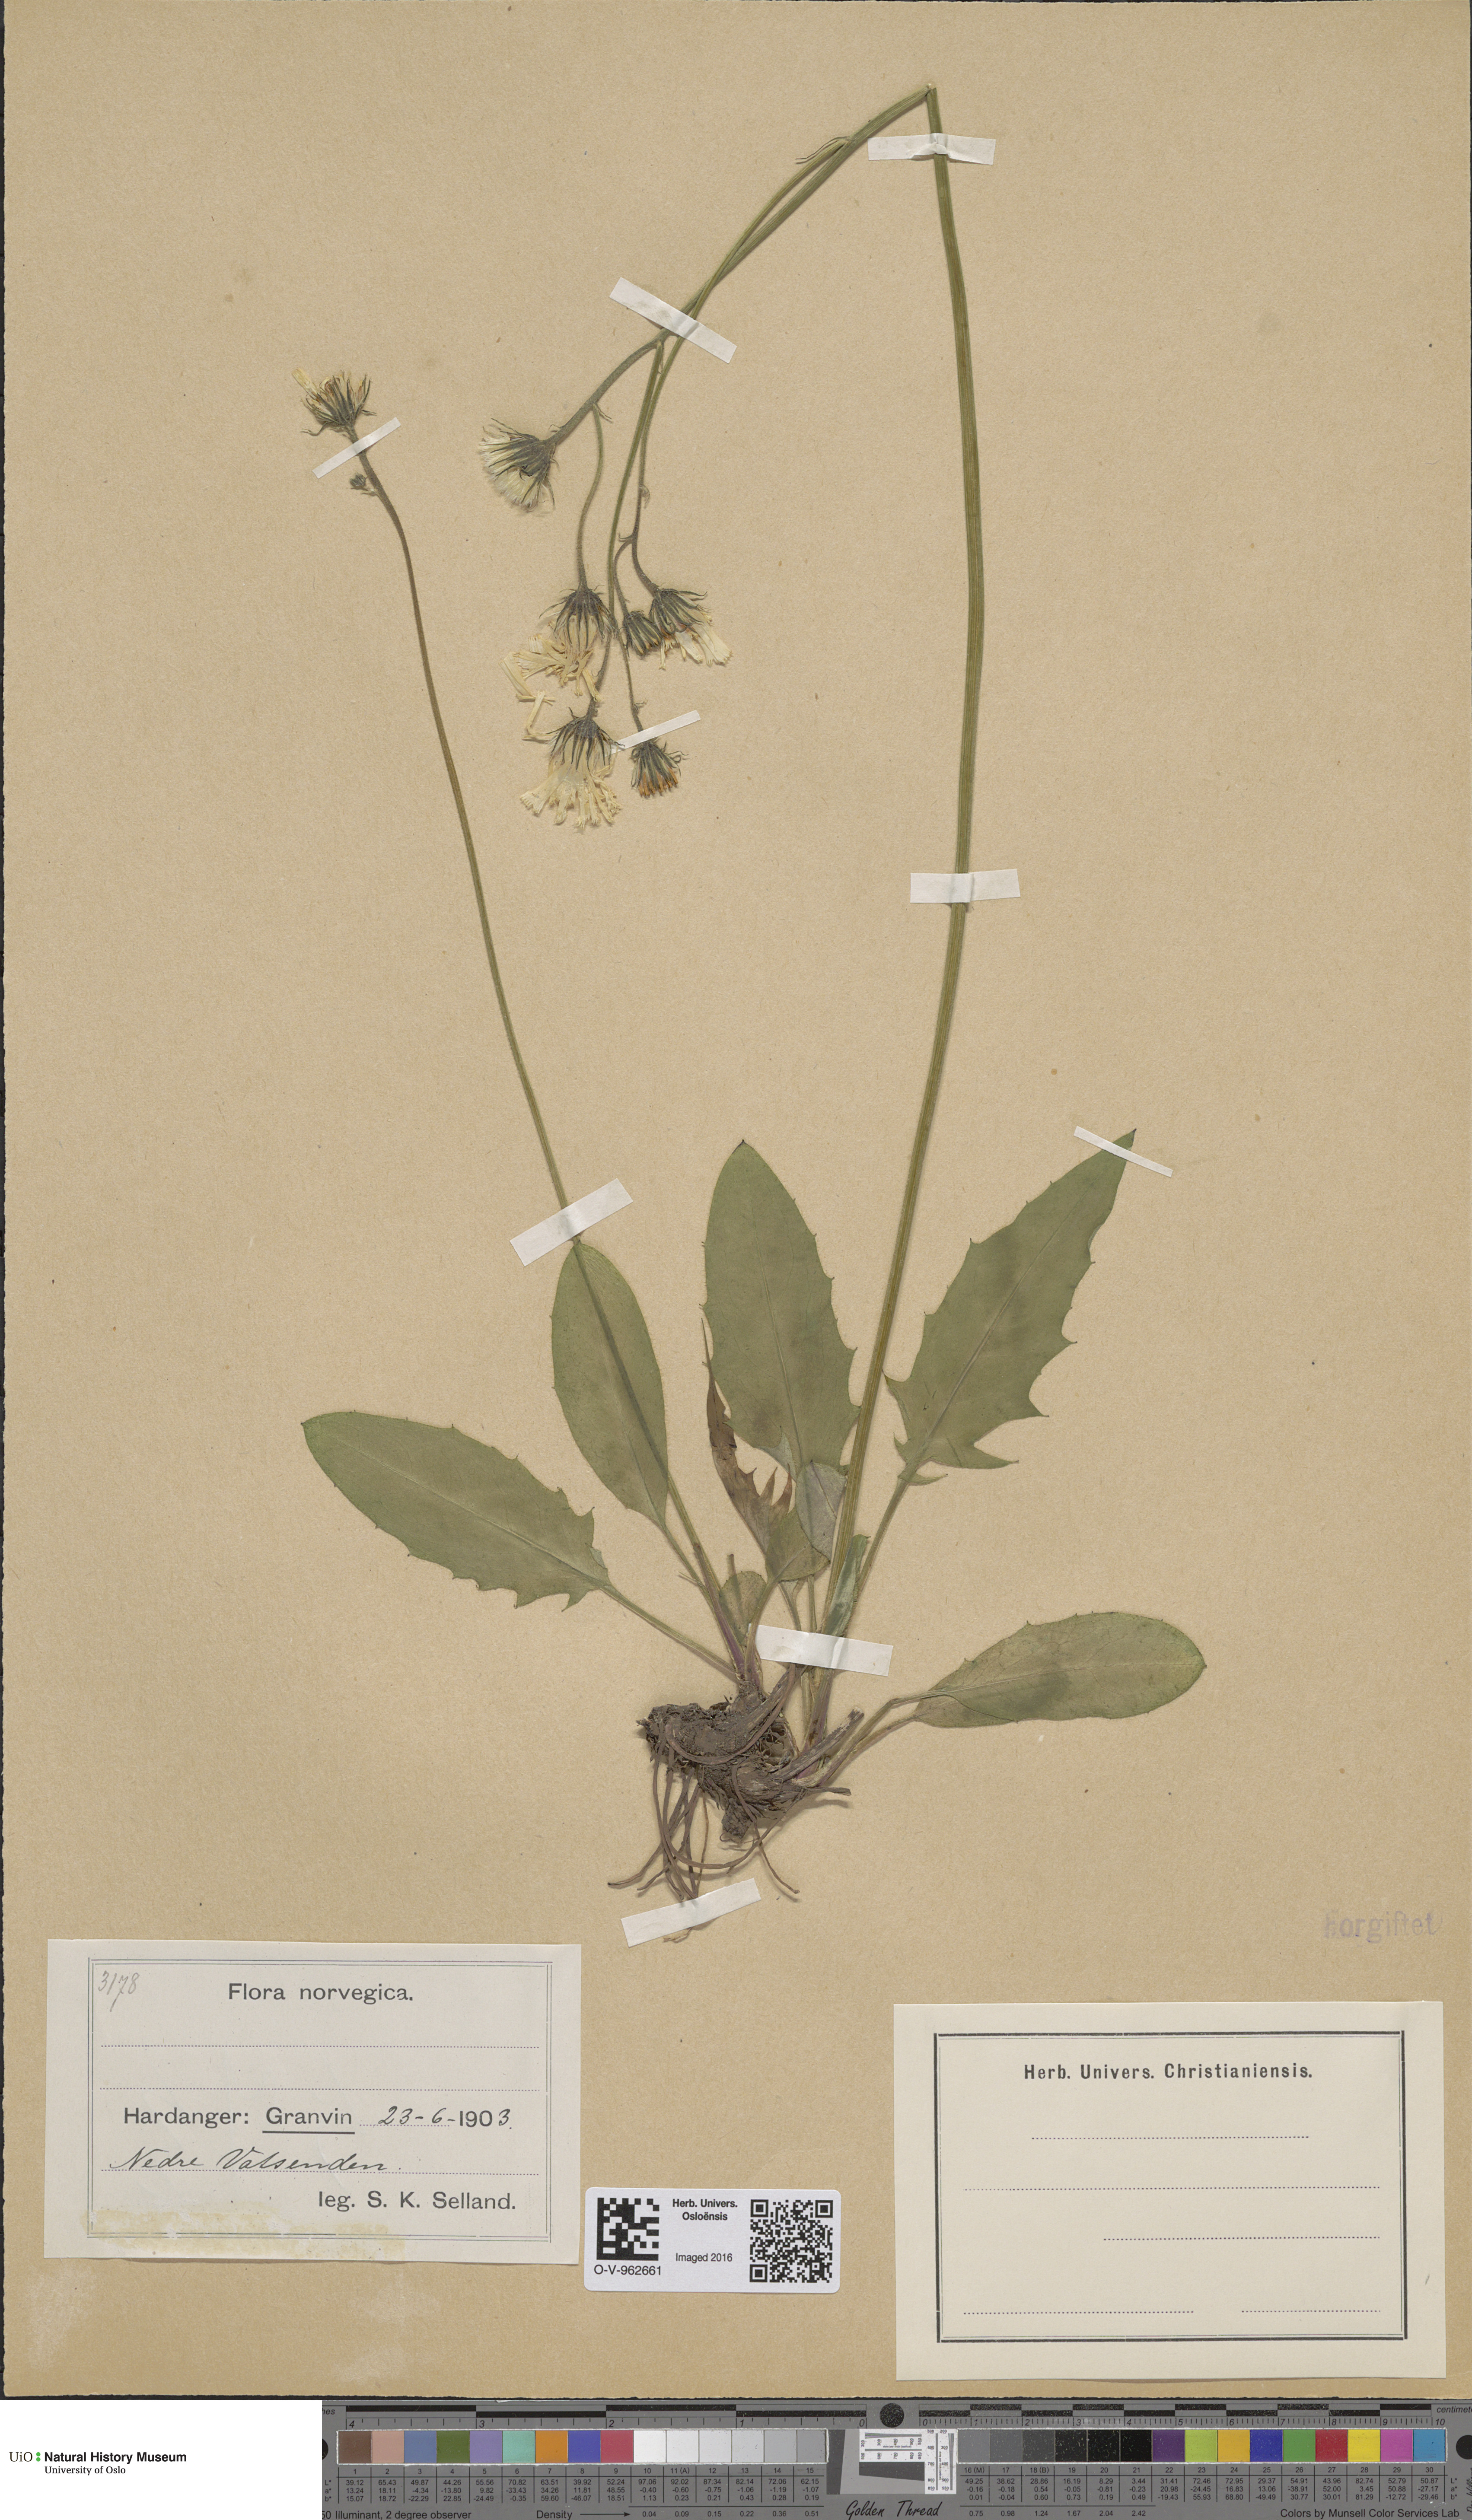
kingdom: Plantae
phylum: Tracheophyta
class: Magnoliopsida
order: Asterales
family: Asteraceae
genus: Hieracium
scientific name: Hieracium
